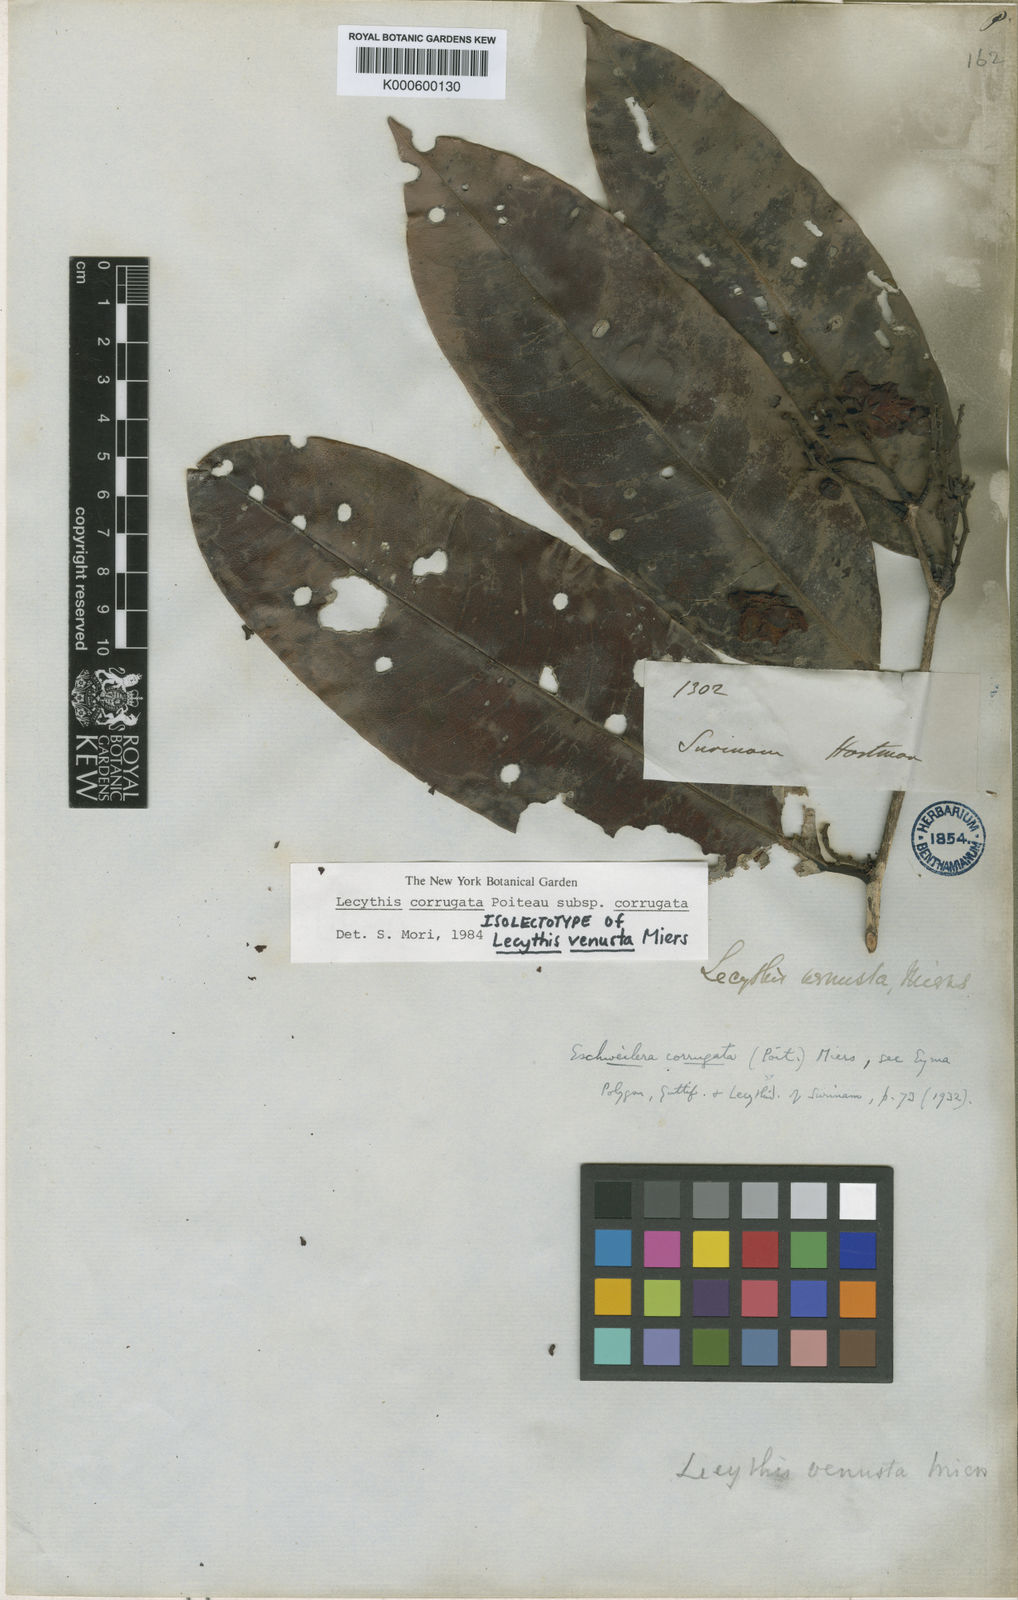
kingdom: Plantae
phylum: Tracheophyta
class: Magnoliopsida
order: Ericales
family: Lecythidaceae
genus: Lecythis
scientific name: Lecythis corrugata
